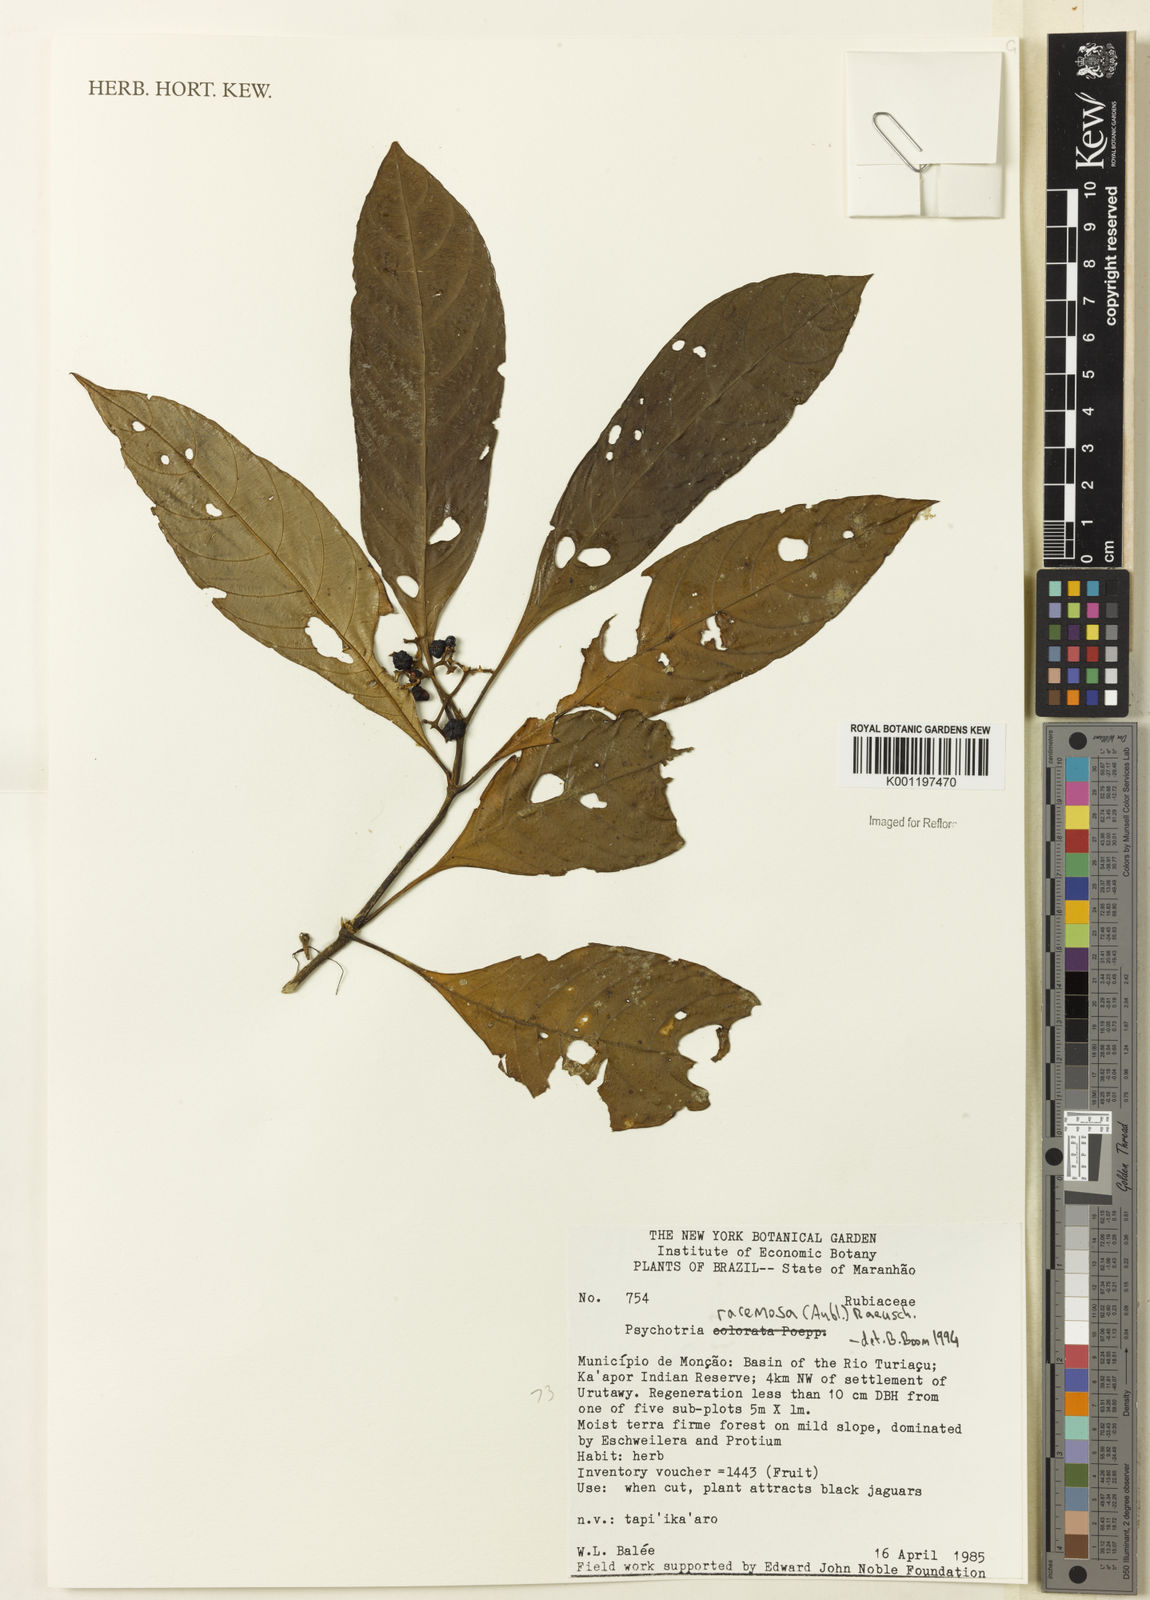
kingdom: Plantae
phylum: Tracheophyta
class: Magnoliopsida
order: Gentianales
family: Rubiaceae
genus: Palicourea
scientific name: Palicourea racemosa
